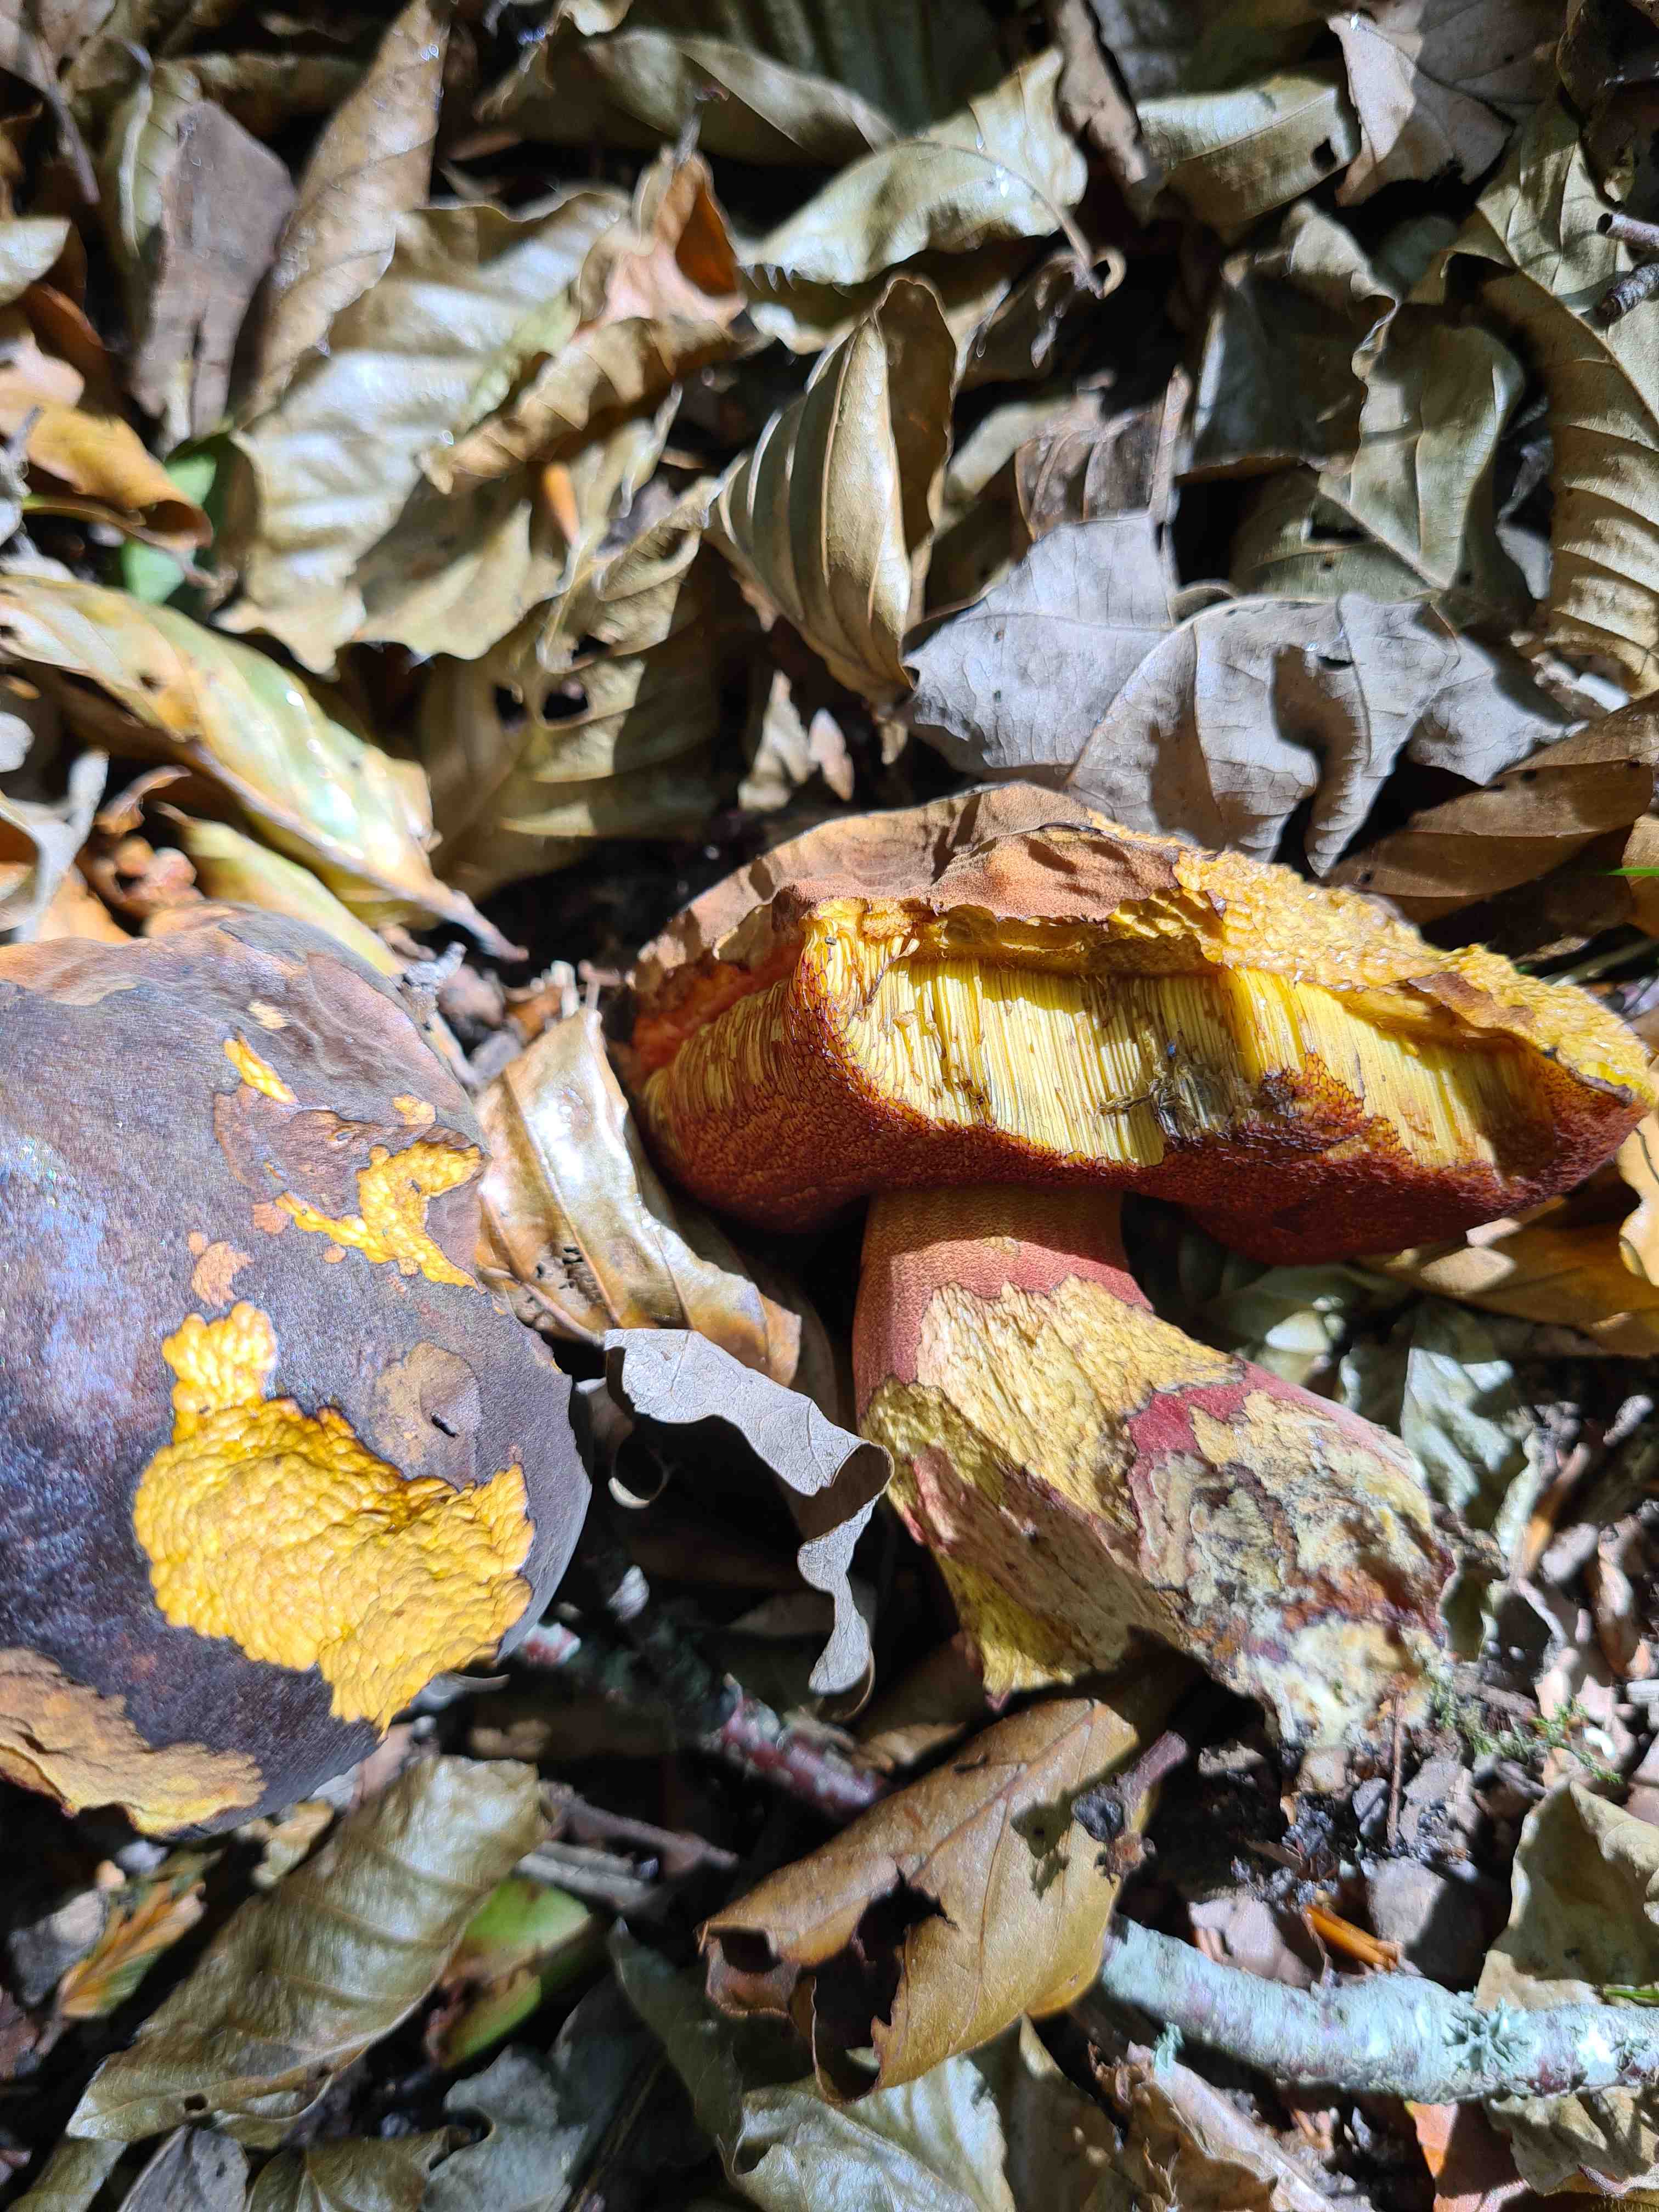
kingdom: Fungi
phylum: Basidiomycota
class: Agaricomycetes
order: Boletales
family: Boletaceae
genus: Neoboletus
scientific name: Neoboletus erythropus
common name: punktstokket indigorørhat
